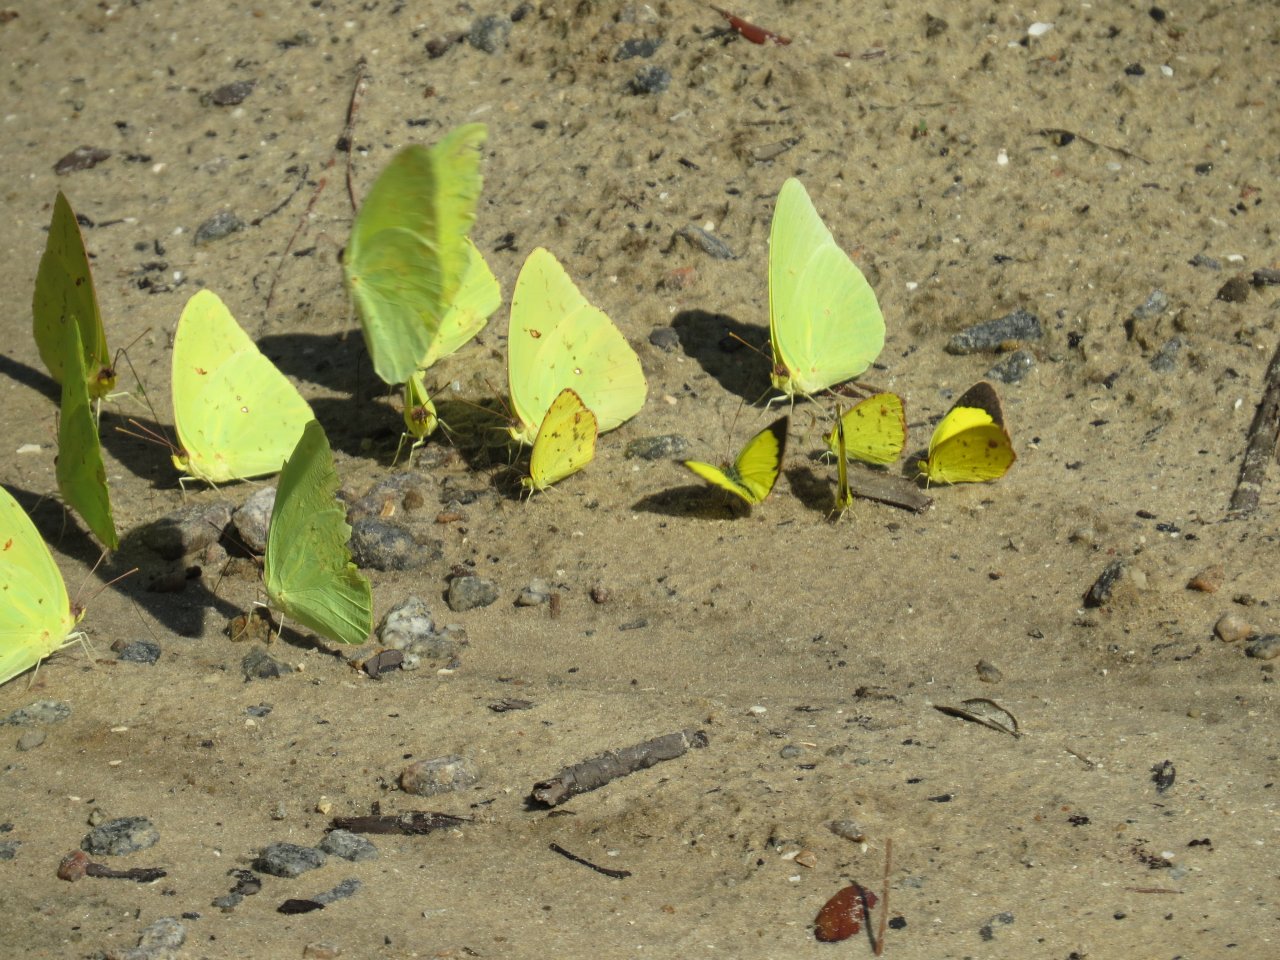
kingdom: Animalia
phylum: Arthropoda
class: Insecta
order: Lepidoptera
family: Pieridae
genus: Phoebis
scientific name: Phoebis sennae
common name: Cloudless Sulphur
